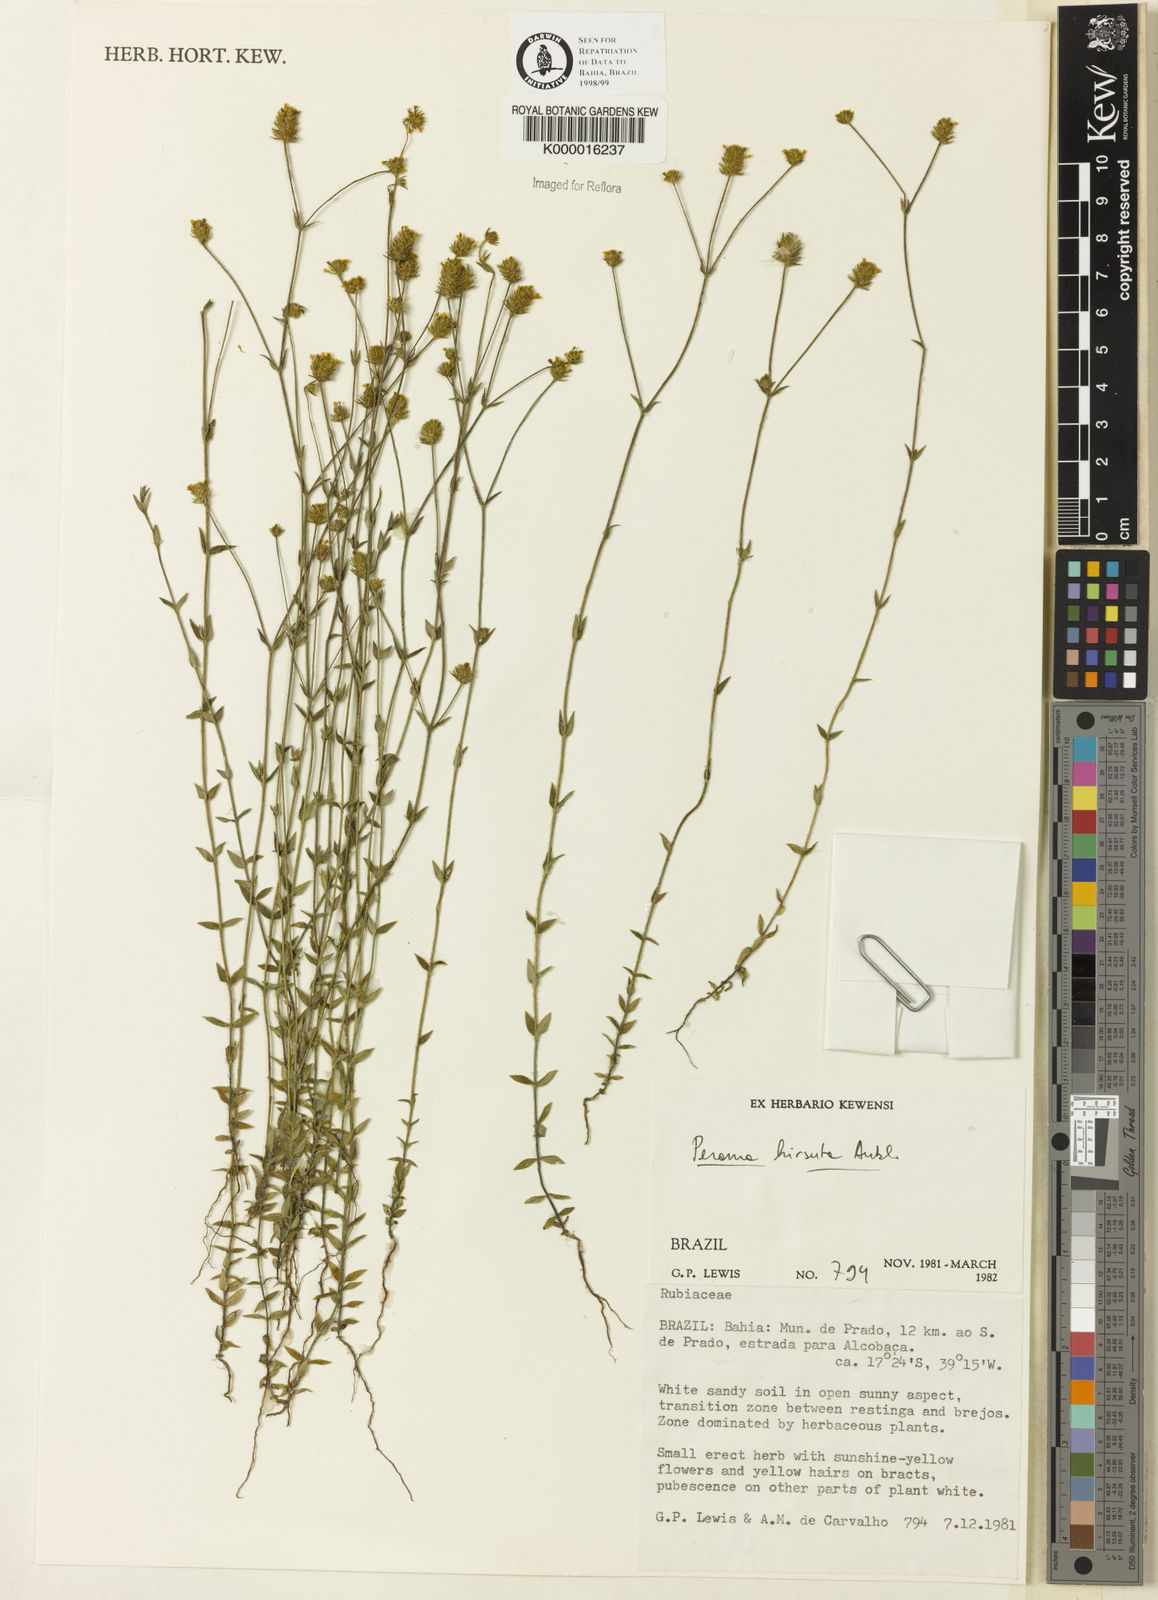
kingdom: Plantae
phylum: Tracheophyta
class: Magnoliopsida
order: Gentianales
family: Rubiaceae
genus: Perama
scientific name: Perama hirsuta
